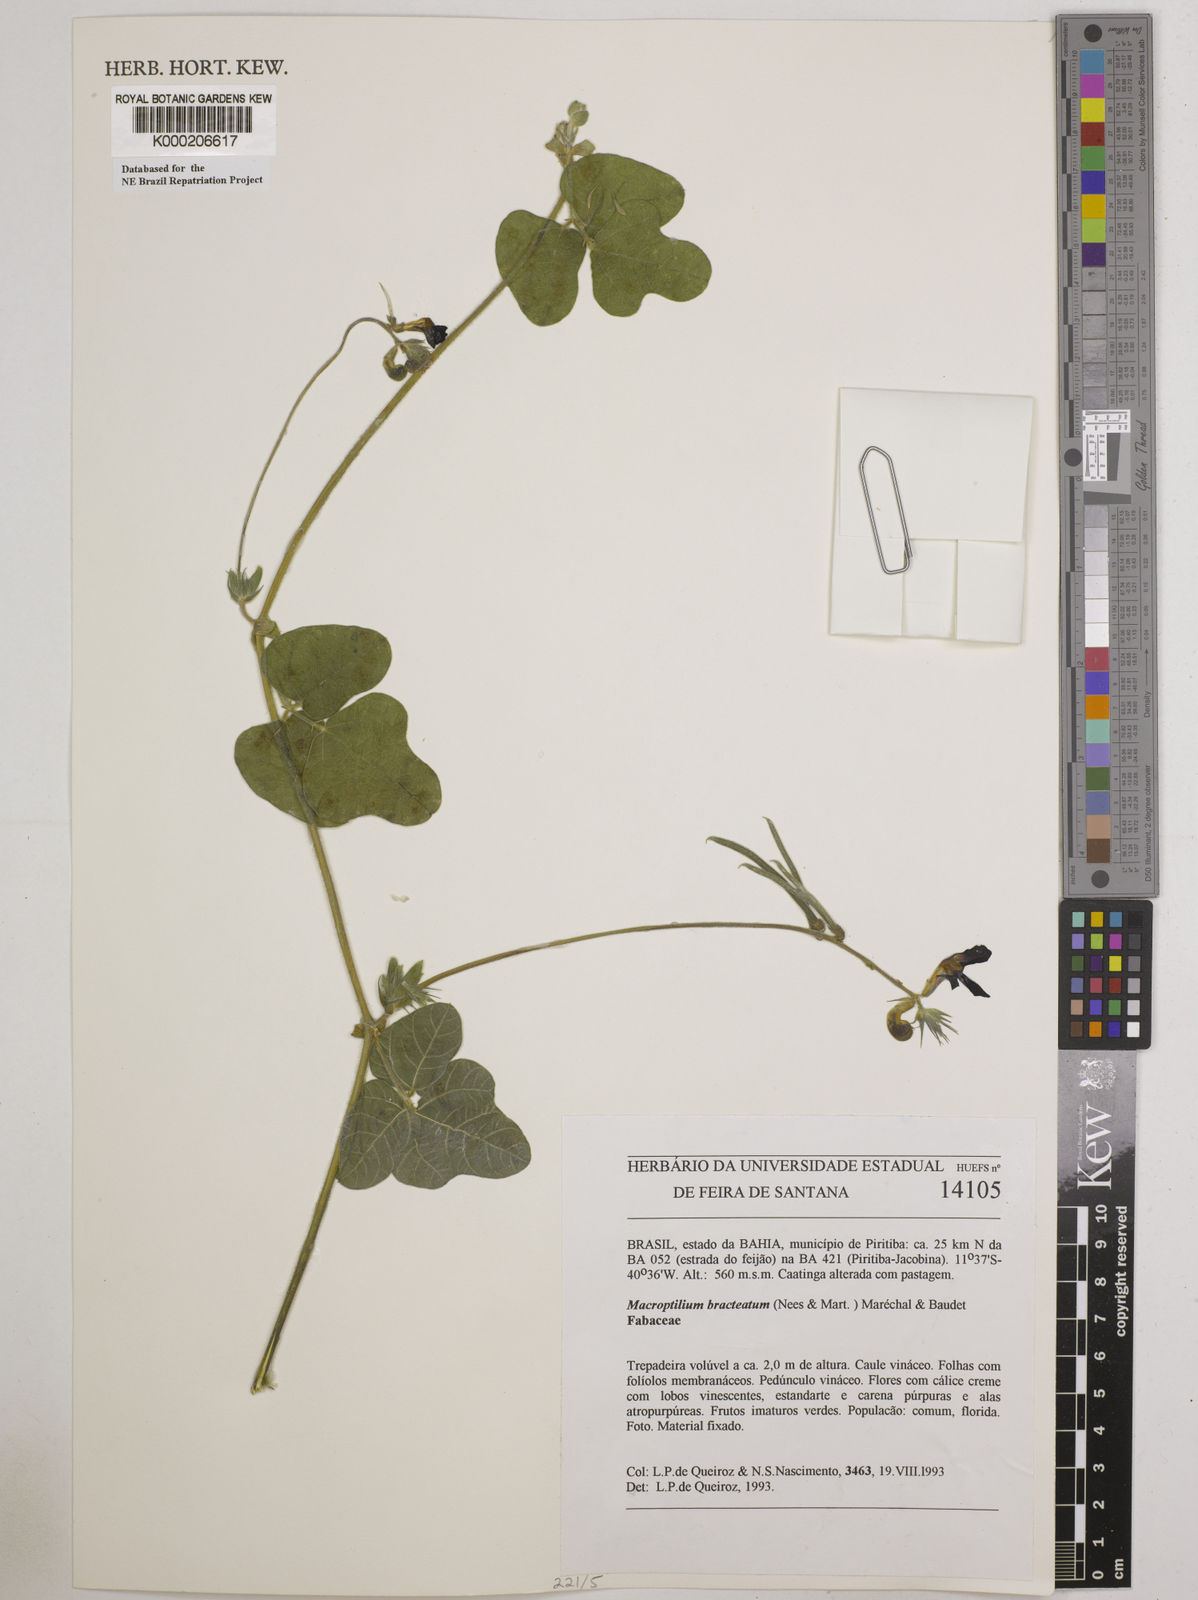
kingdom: Plantae
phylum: Tracheophyta
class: Magnoliopsida
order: Fabales
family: Fabaceae
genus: Macroptilium
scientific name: Macroptilium
